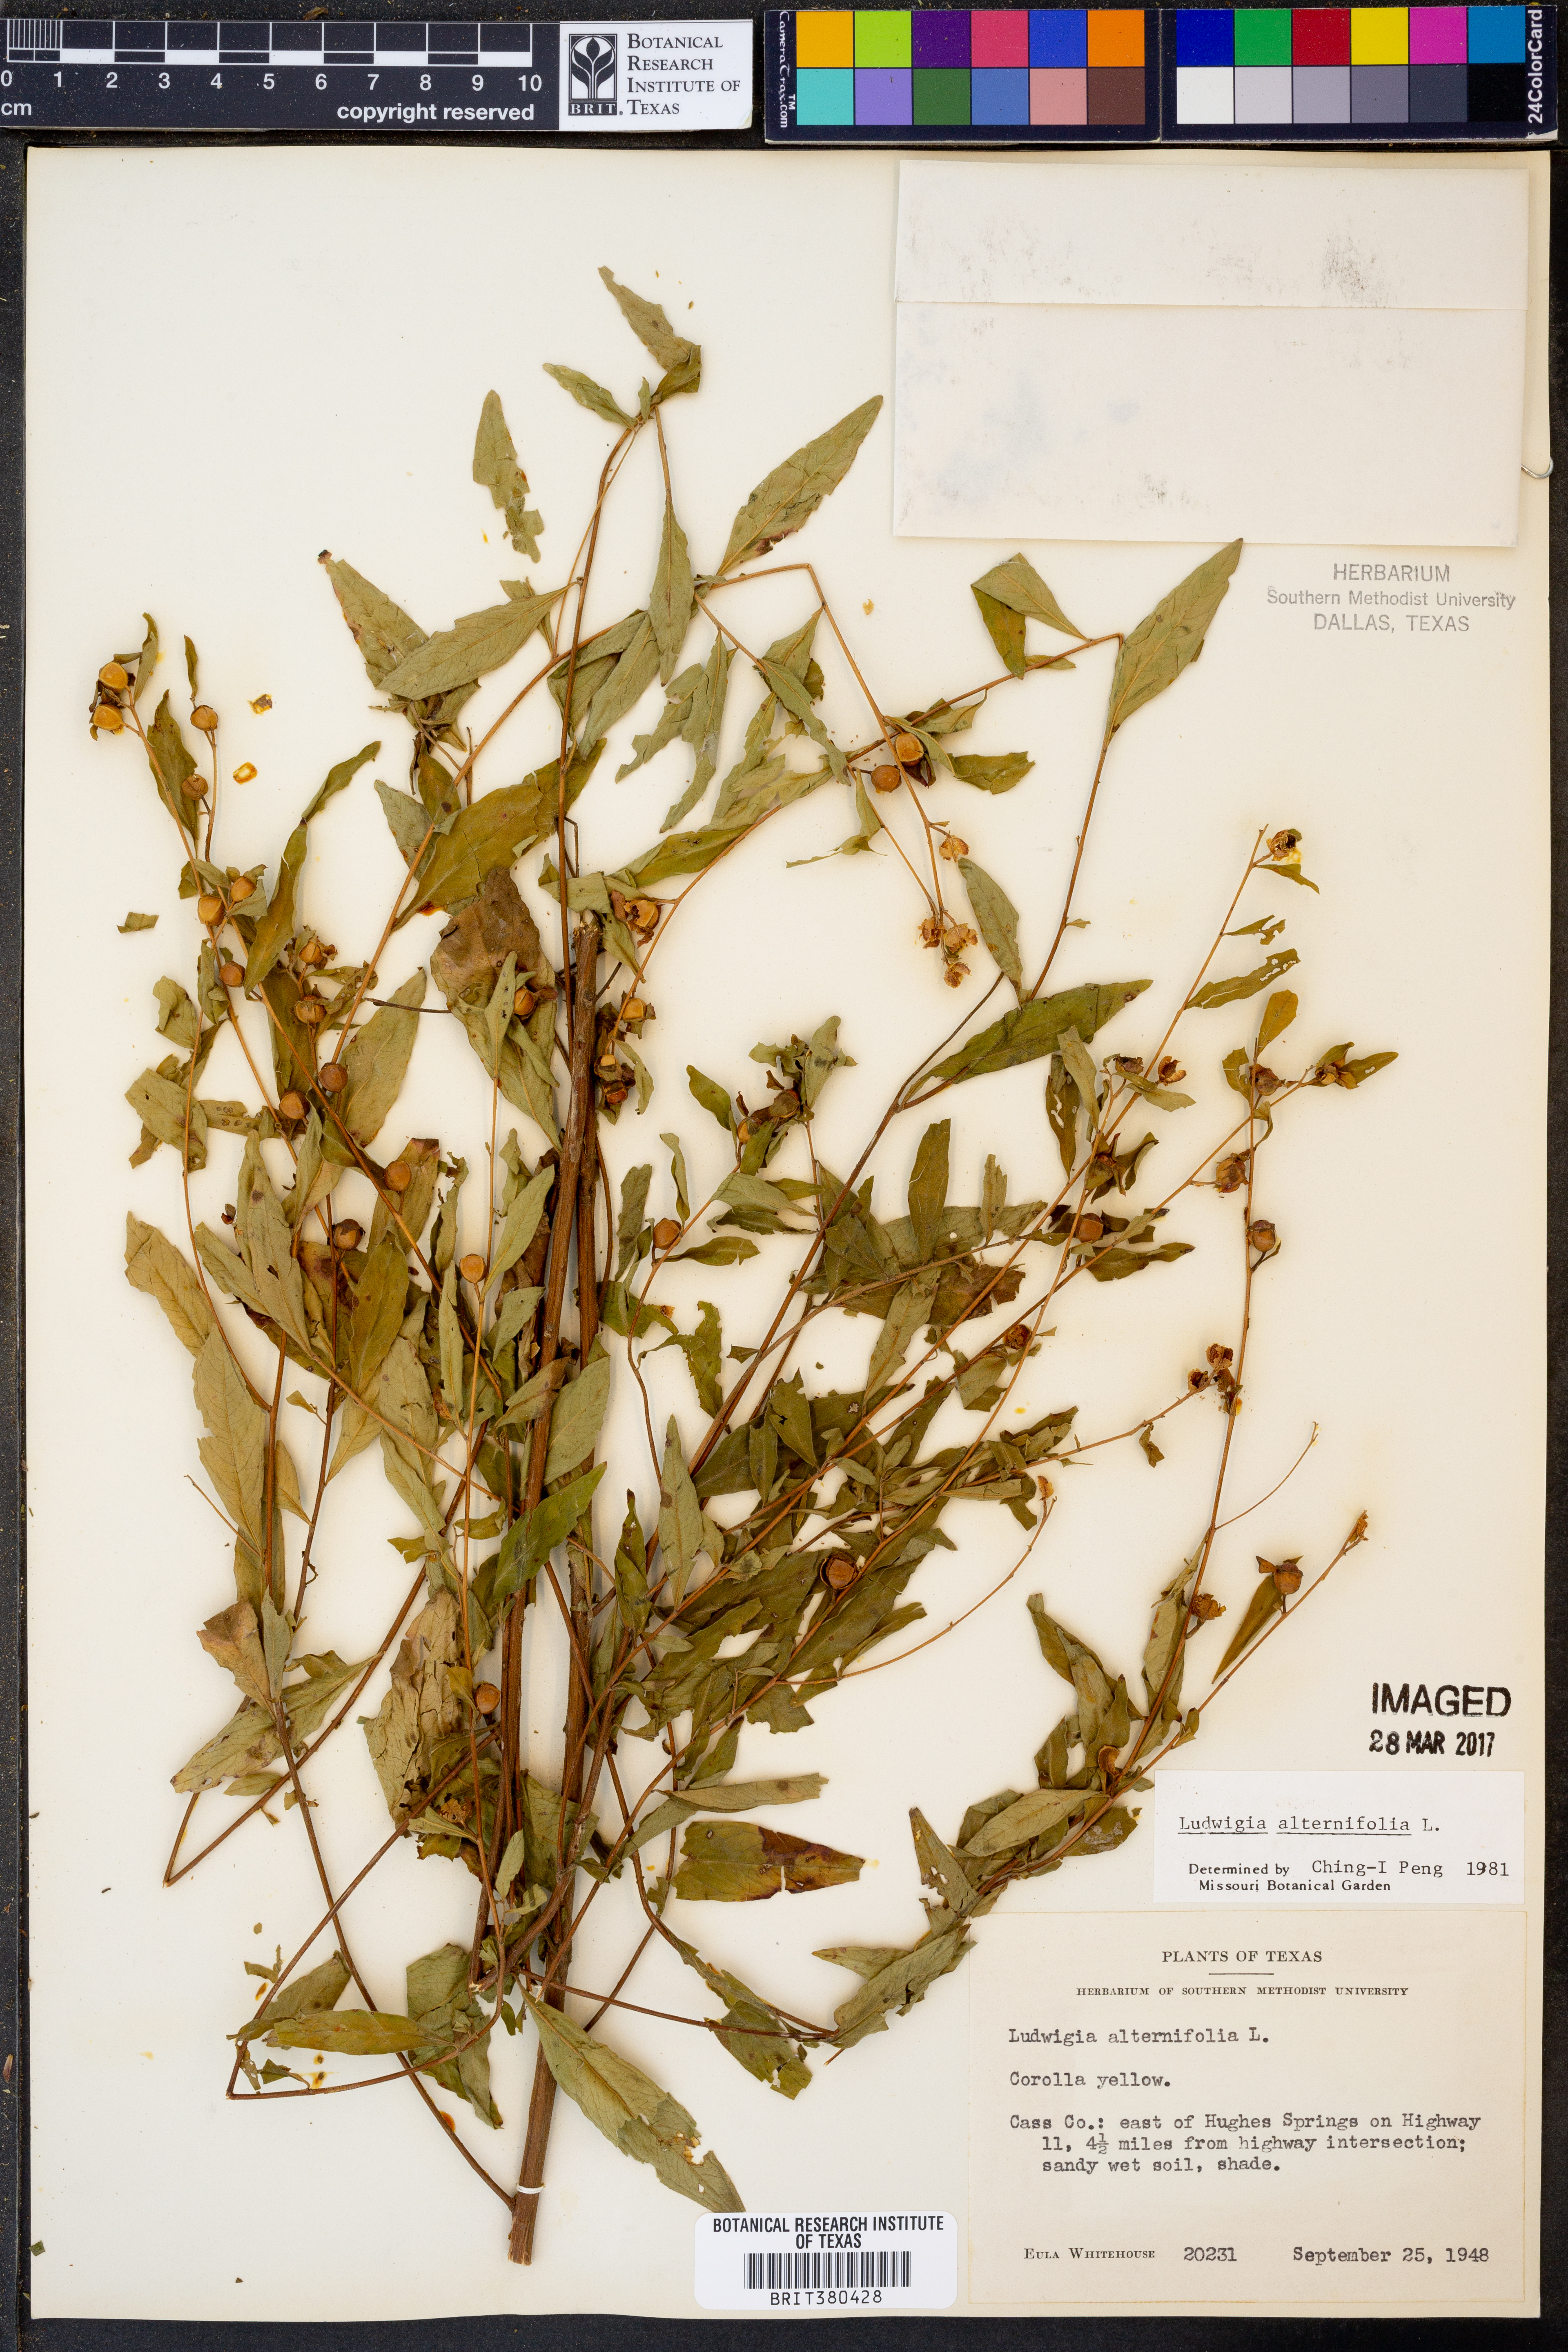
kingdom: Plantae
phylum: Tracheophyta
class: Magnoliopsida
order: Myrtales
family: Onagraceae
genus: Ludwigia
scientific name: Ludwigia alternifolia
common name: Rattlebox
